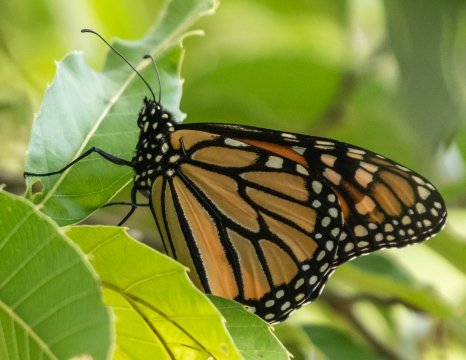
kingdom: Animalia
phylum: Arthropoda
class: Insecta
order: Lepidoptera
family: Nymphalidae
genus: Danaus
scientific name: Danaus plexippus
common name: Monarch
